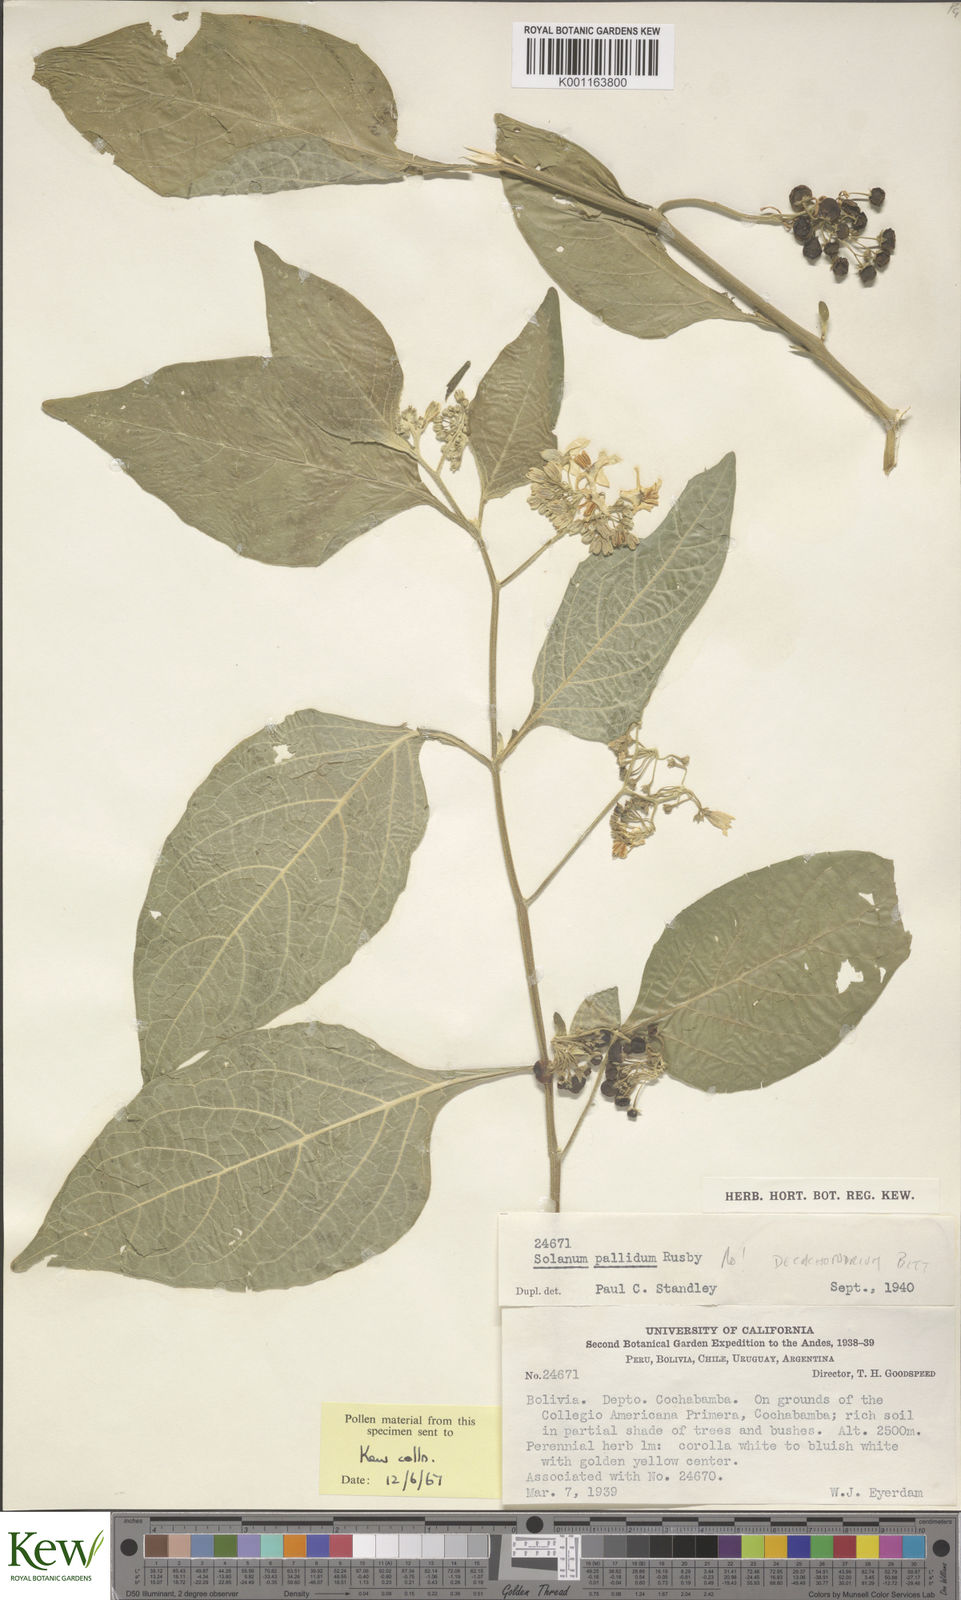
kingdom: Plantae
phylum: Tracheophyta
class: Magnoliopsida
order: Solanales
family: Solanaceae
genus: Solanum
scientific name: Solanum cochabambense
